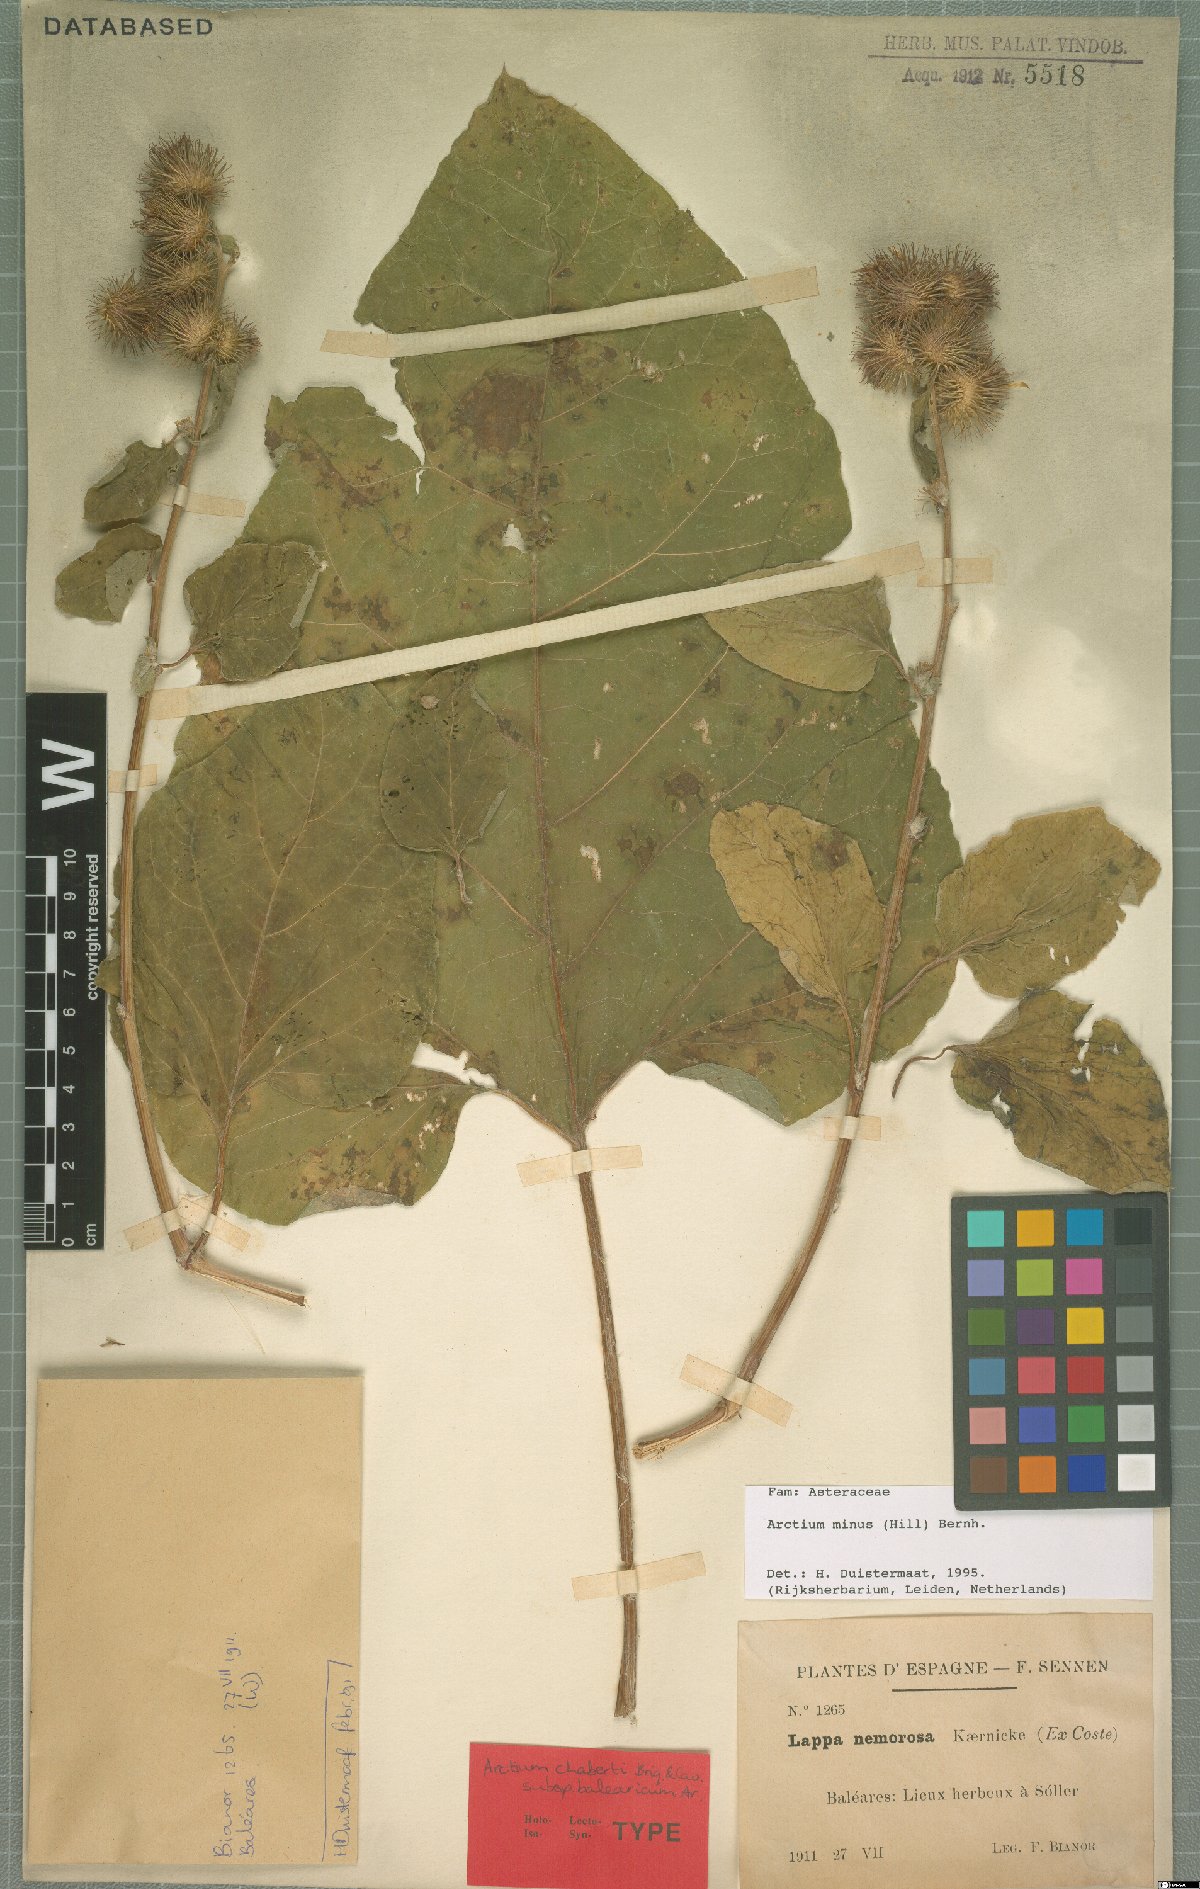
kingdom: Plantae
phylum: Tracheophyta
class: Magnoliopsida
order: Asterales
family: Asteraceae
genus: Arctium
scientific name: Arctium minus
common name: Lesser burdock
